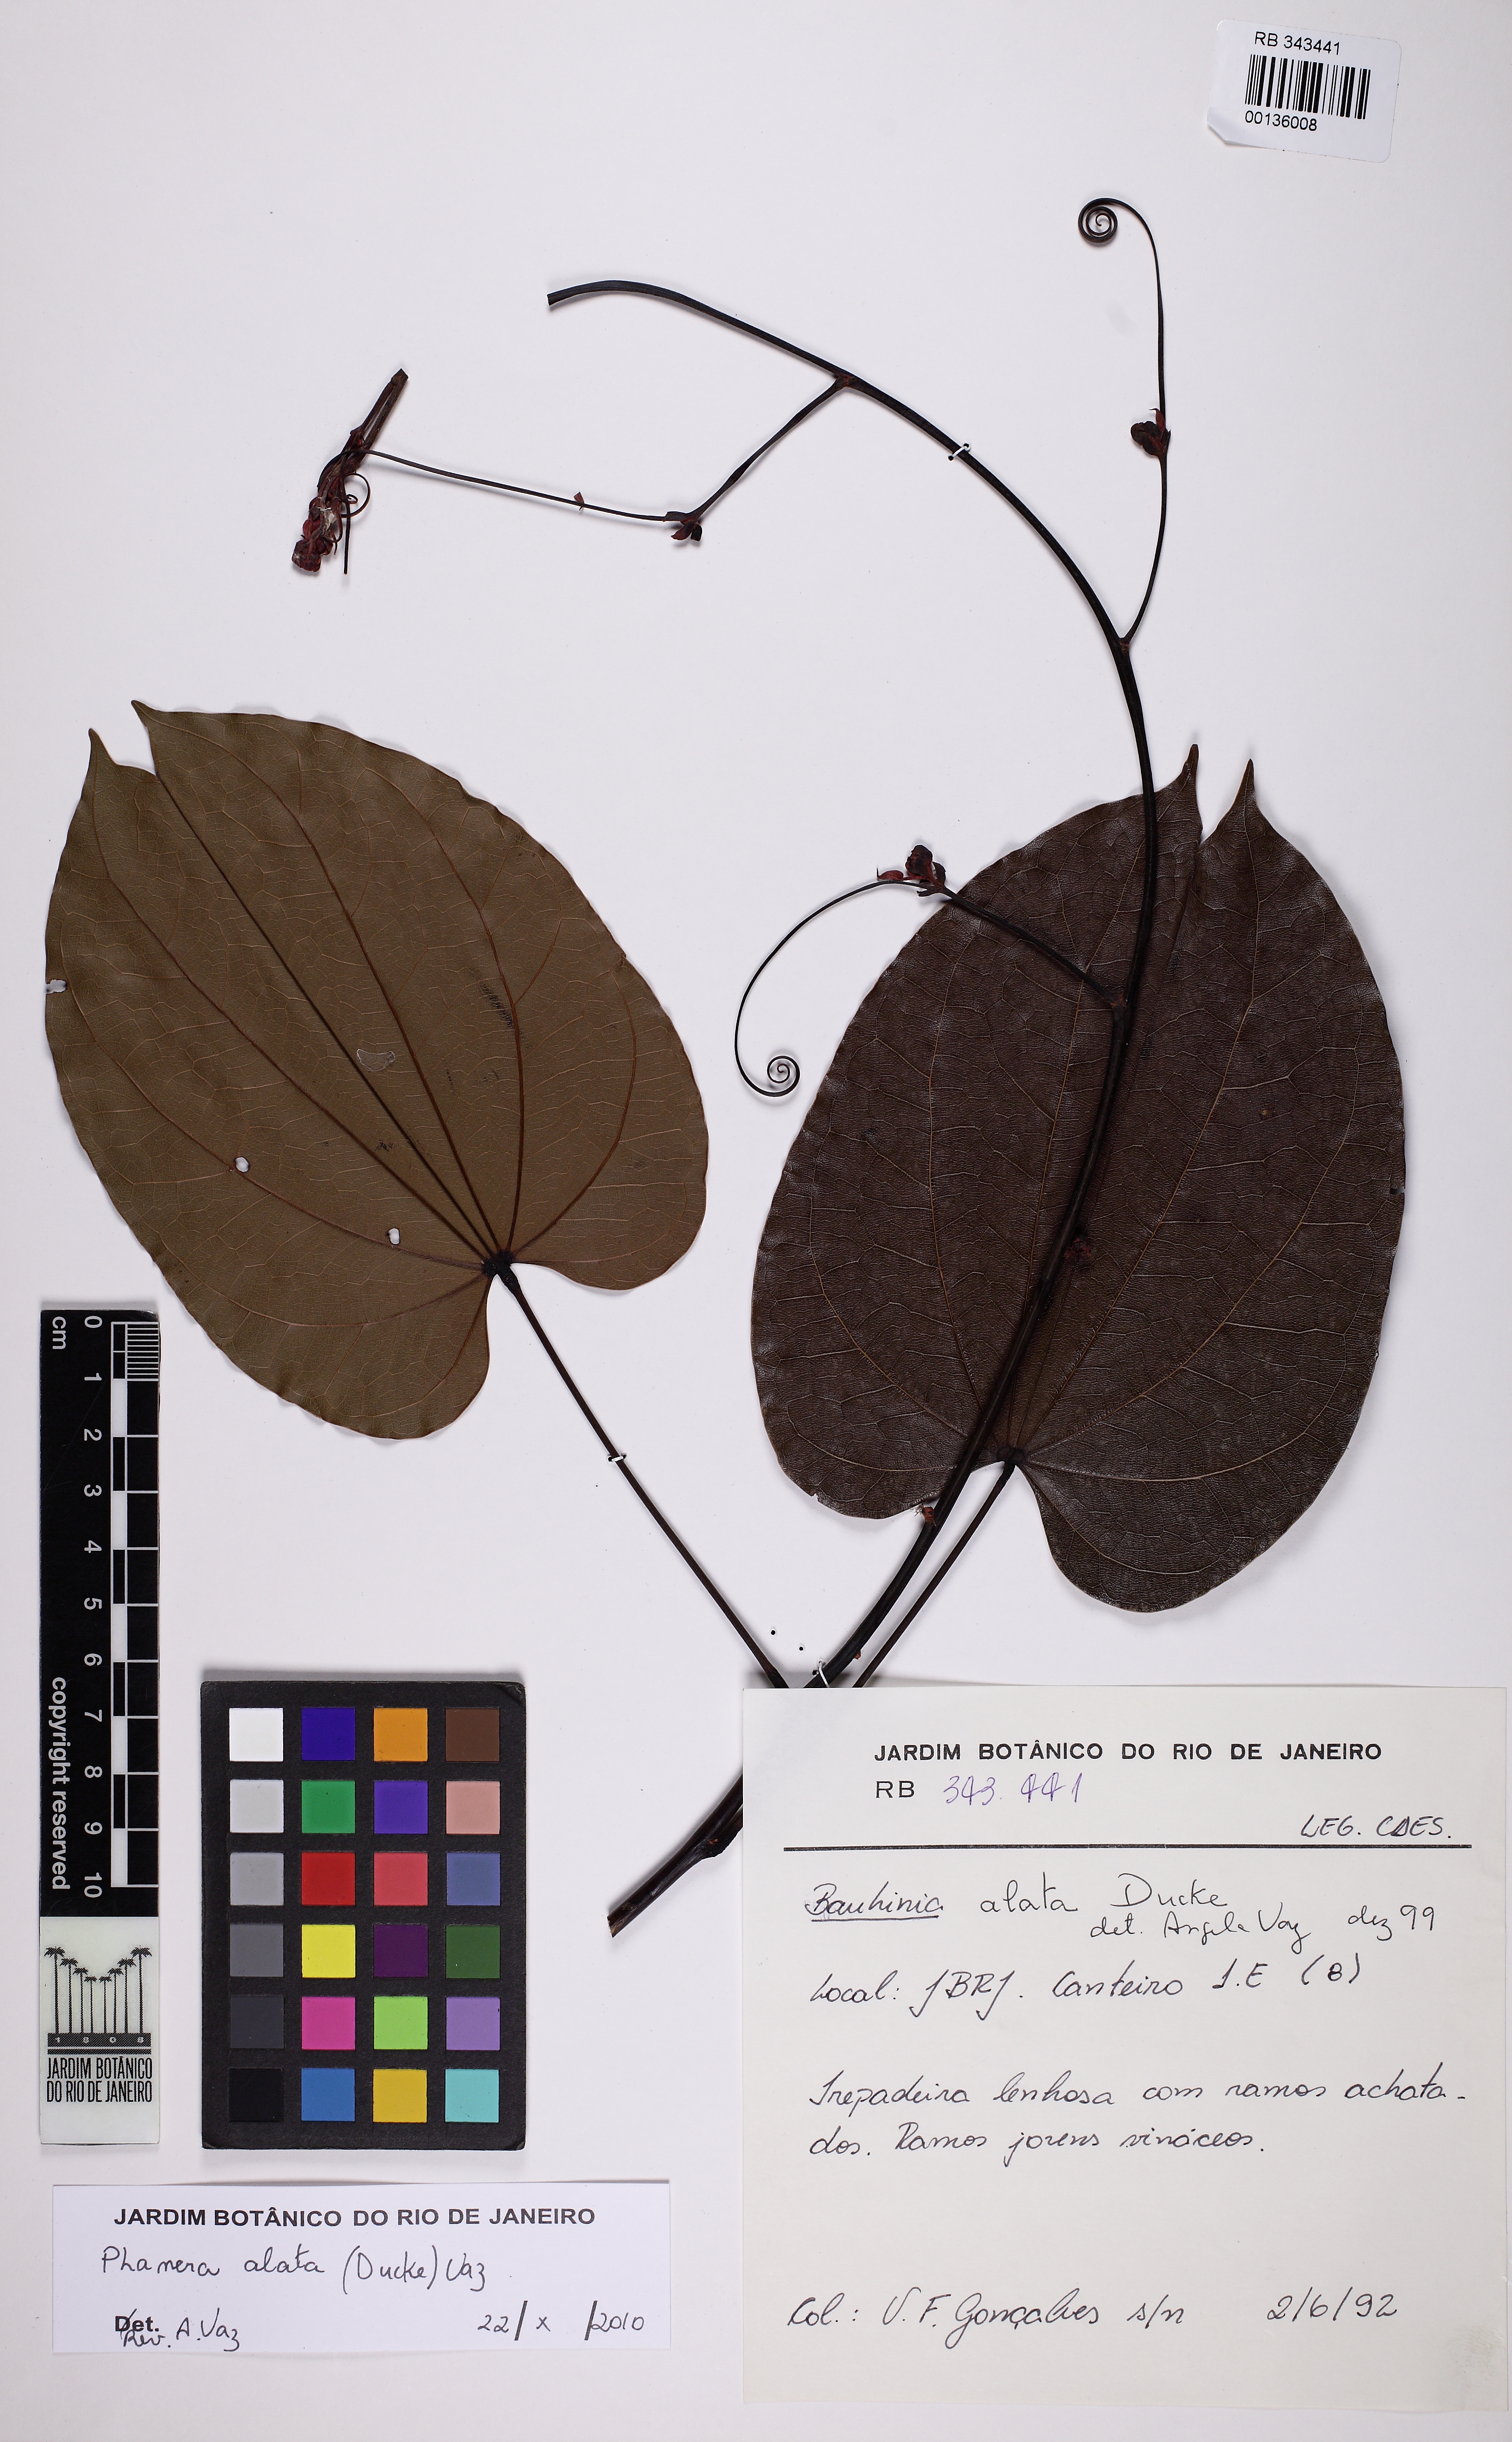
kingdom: Plantae
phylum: Tracheophyta
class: Magnoliopsida
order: Fabales
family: Fabaceae
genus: Schnella
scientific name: Schnella alata
